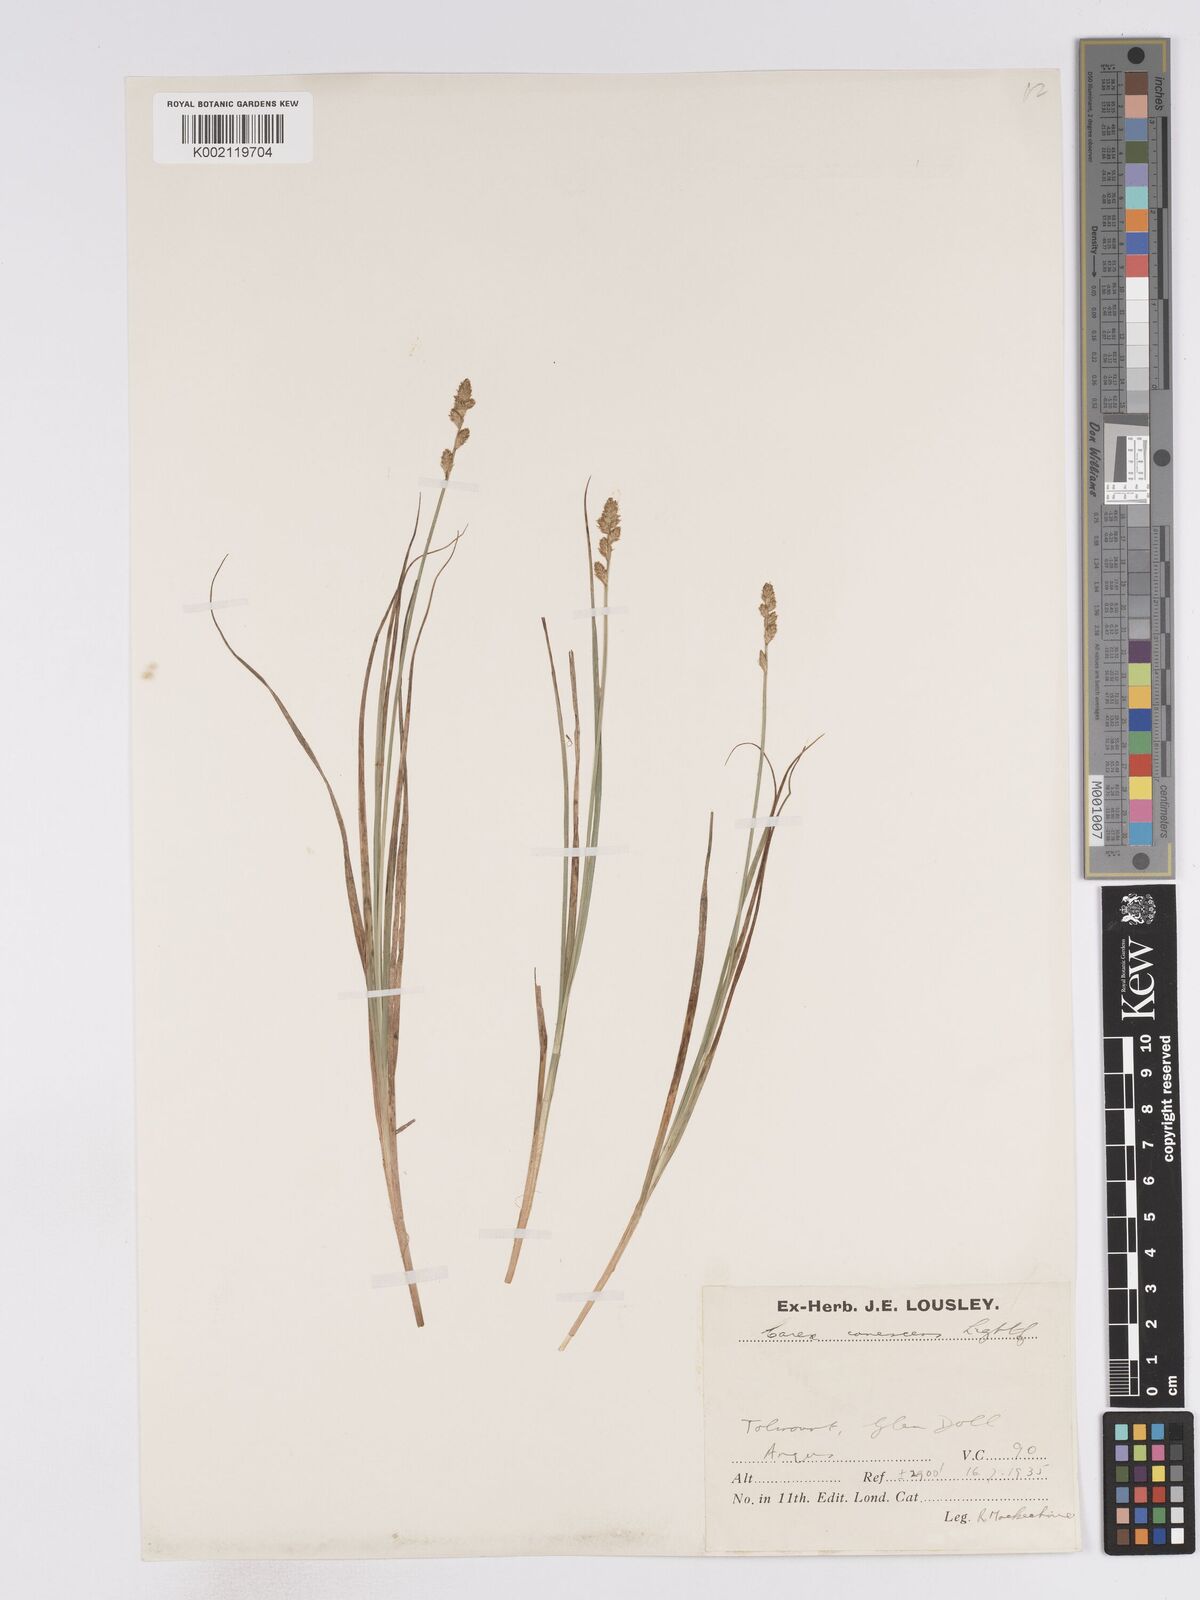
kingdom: Plantae
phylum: Tracheophyta
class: Liliopsida
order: Poales
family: Cyperaceae
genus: Carex
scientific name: Carex curta
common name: White sedge
